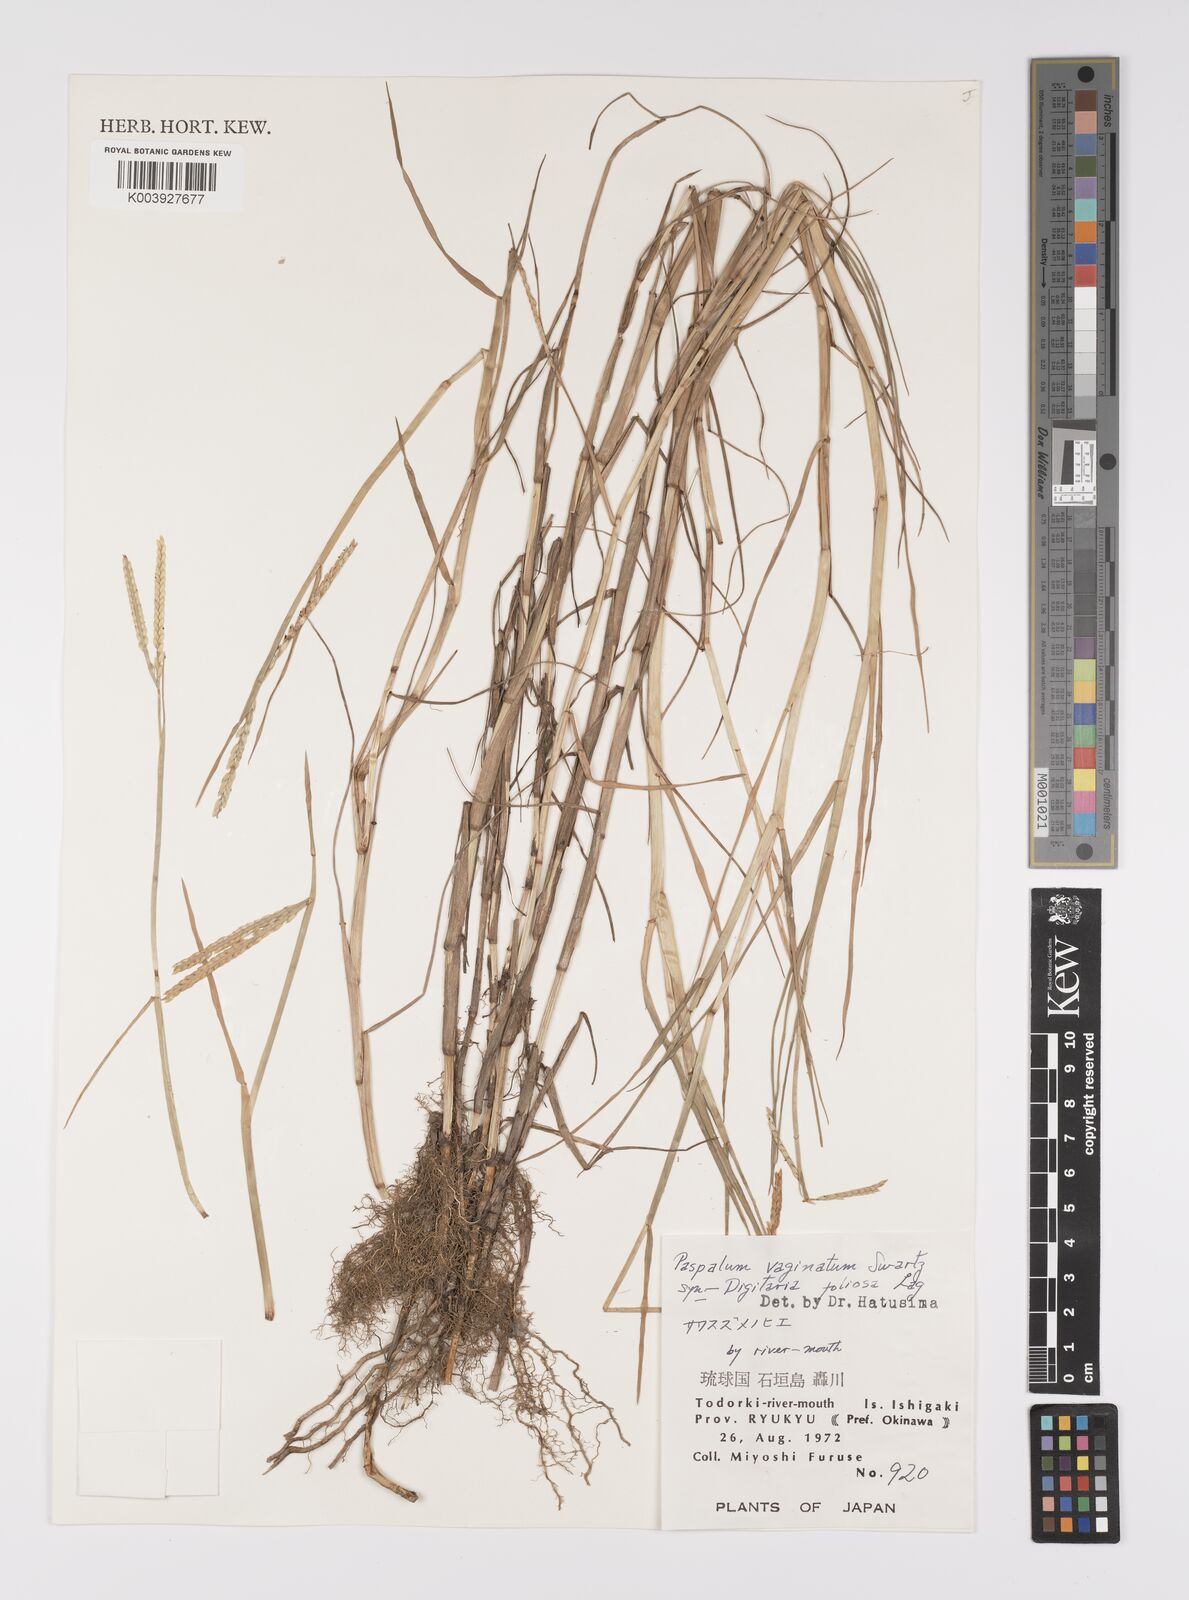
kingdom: Plantae
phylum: Tracheophyta
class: Liliopsida
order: Poales
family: Poaceae
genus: Paspalum
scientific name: Paspalum vaginatum
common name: Seashore paspalum
